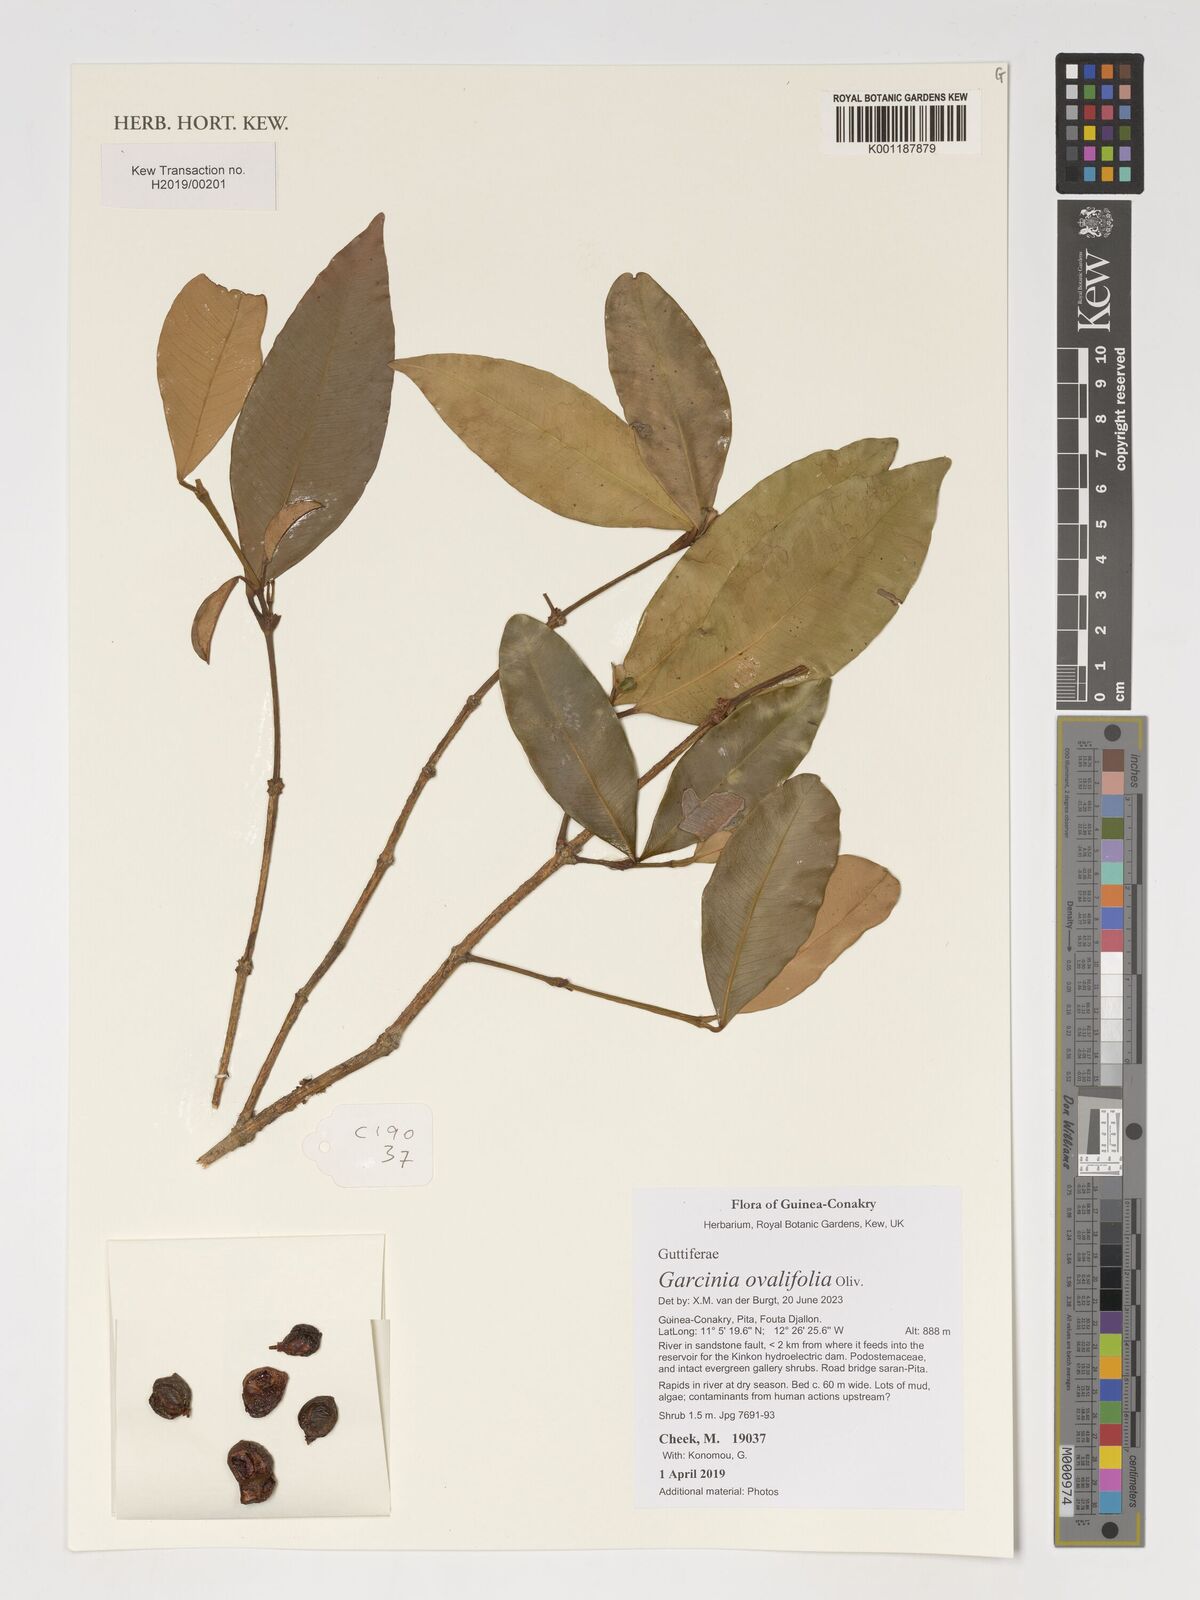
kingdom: Plantae
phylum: Tracheophyta
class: Magnoliopsida
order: Malpighiales
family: Clusiaceae
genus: Garcinia
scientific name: Garcinia ovalifolia
